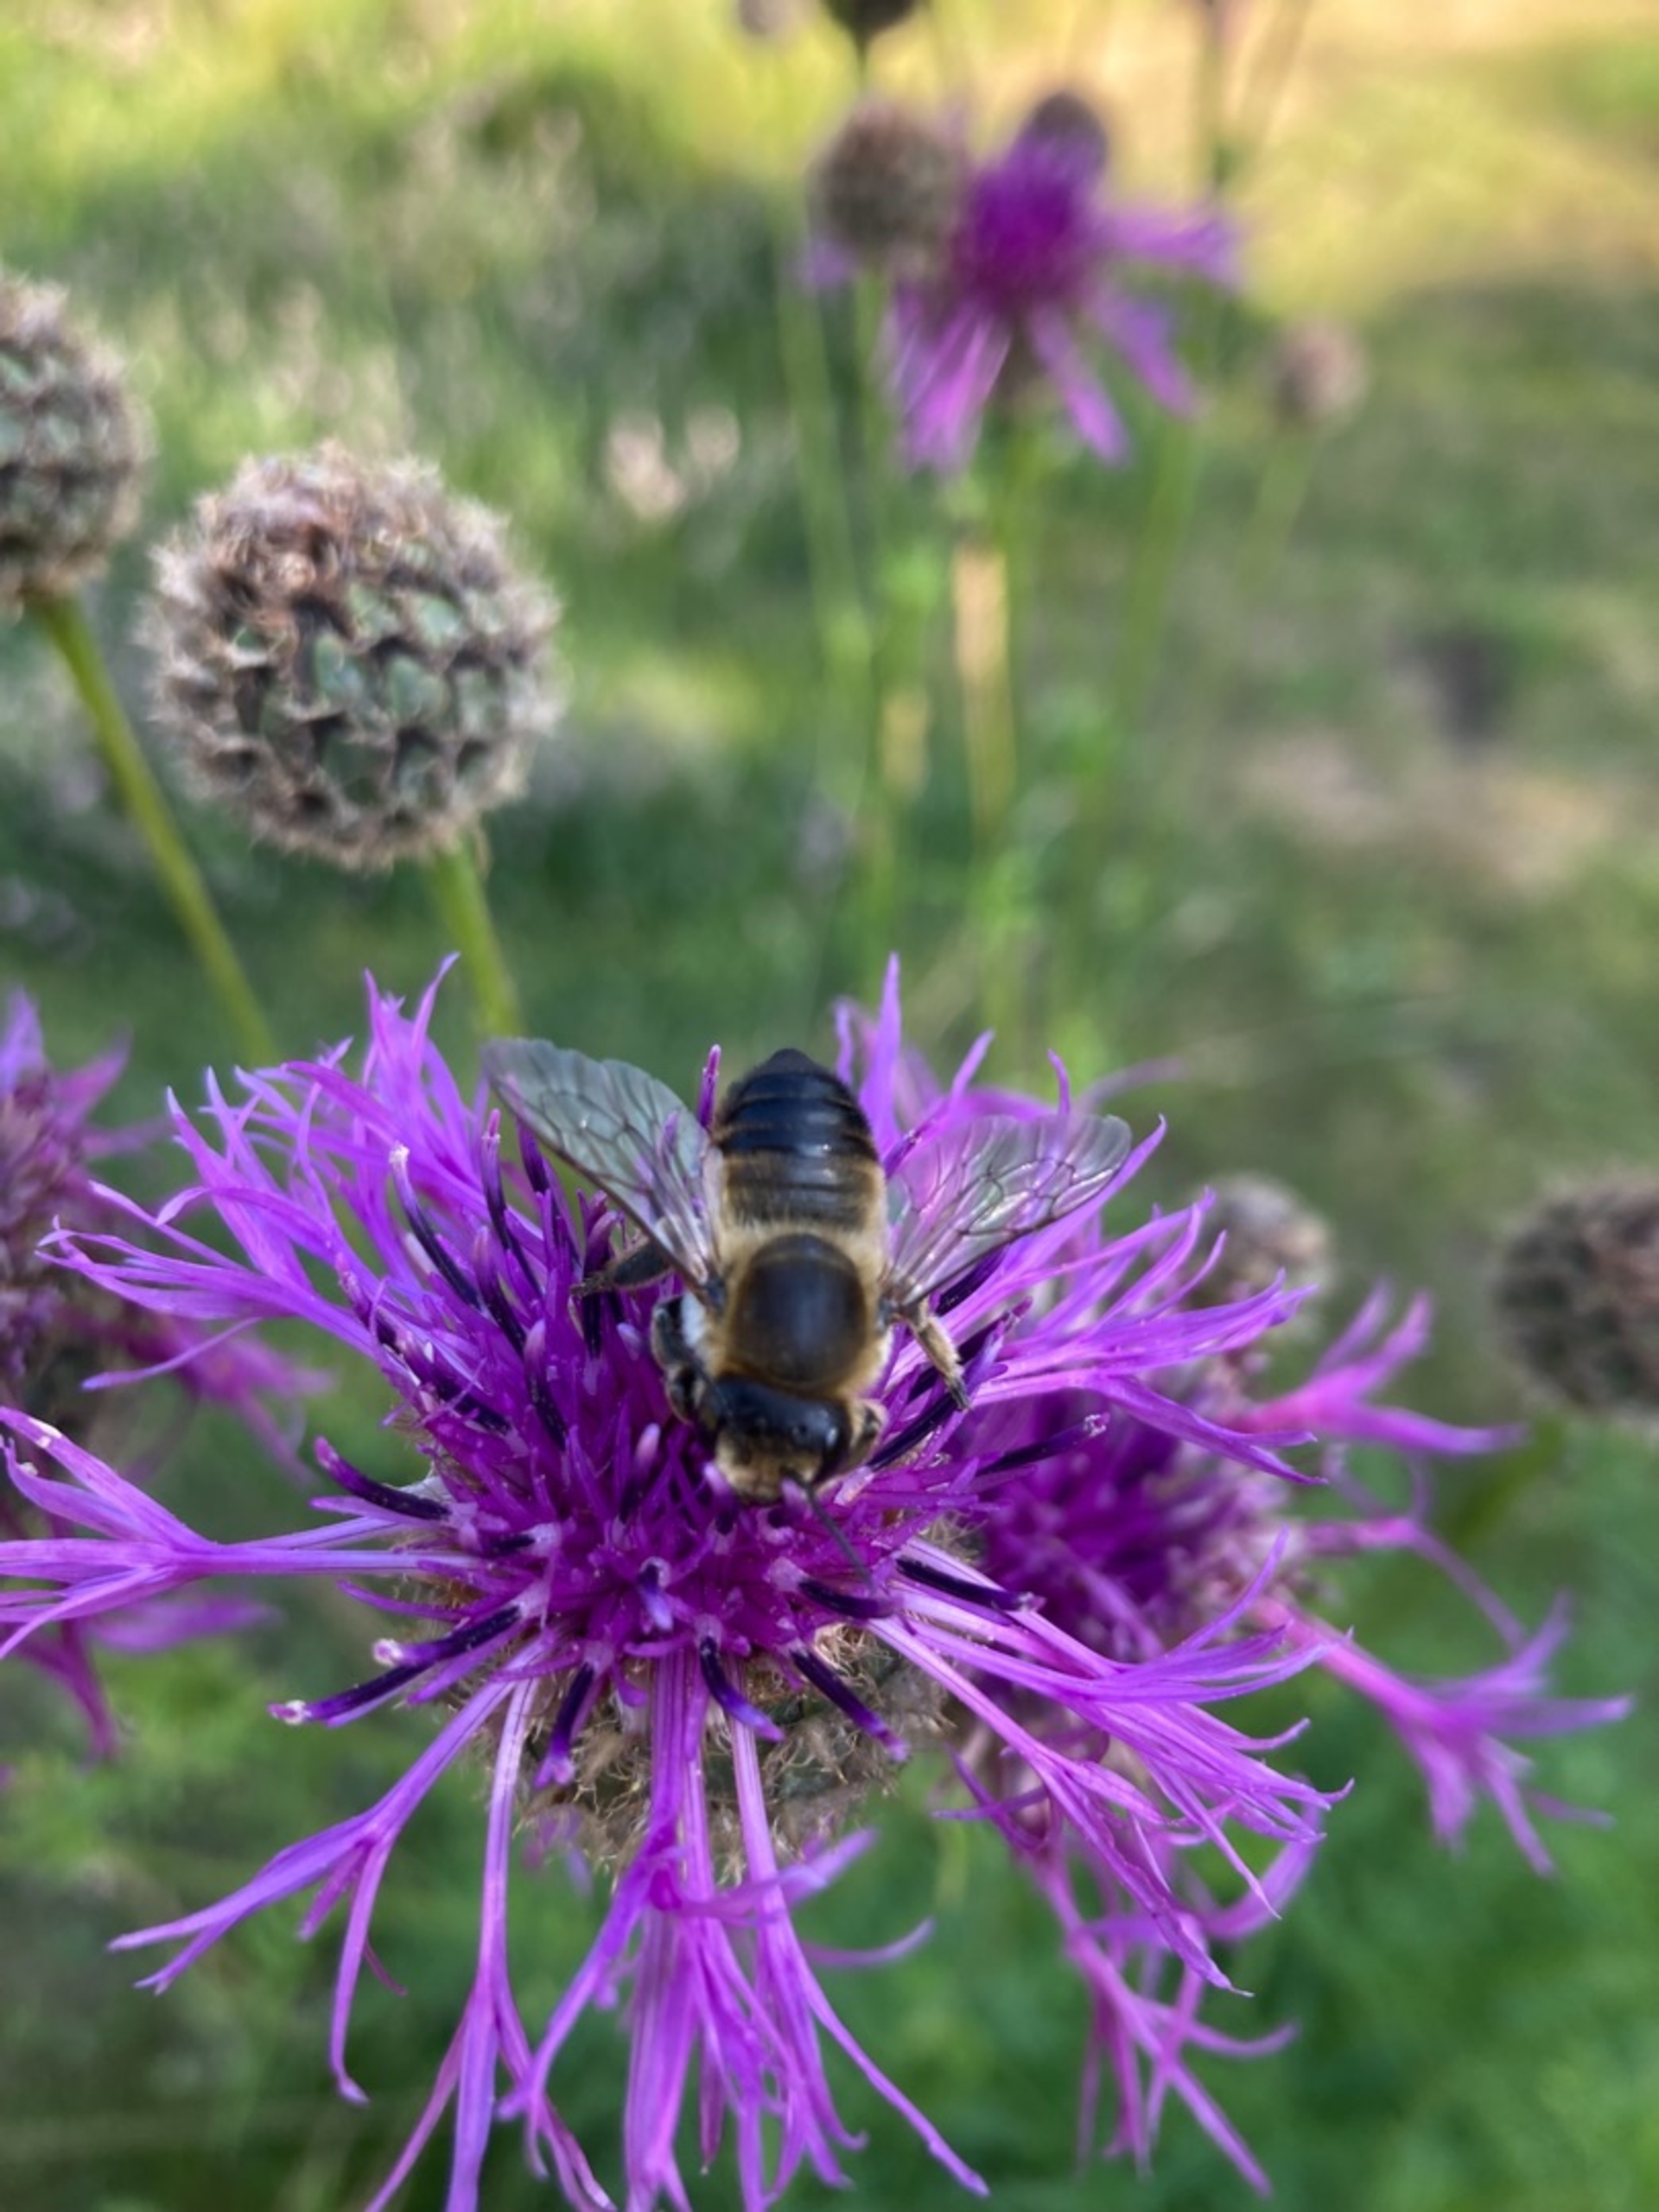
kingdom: Animalia
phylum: Arthropoda
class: Insecta
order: Hymenoptera
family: Megachilidae
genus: Megachile
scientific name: Megachile
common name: Bladskærerbier
